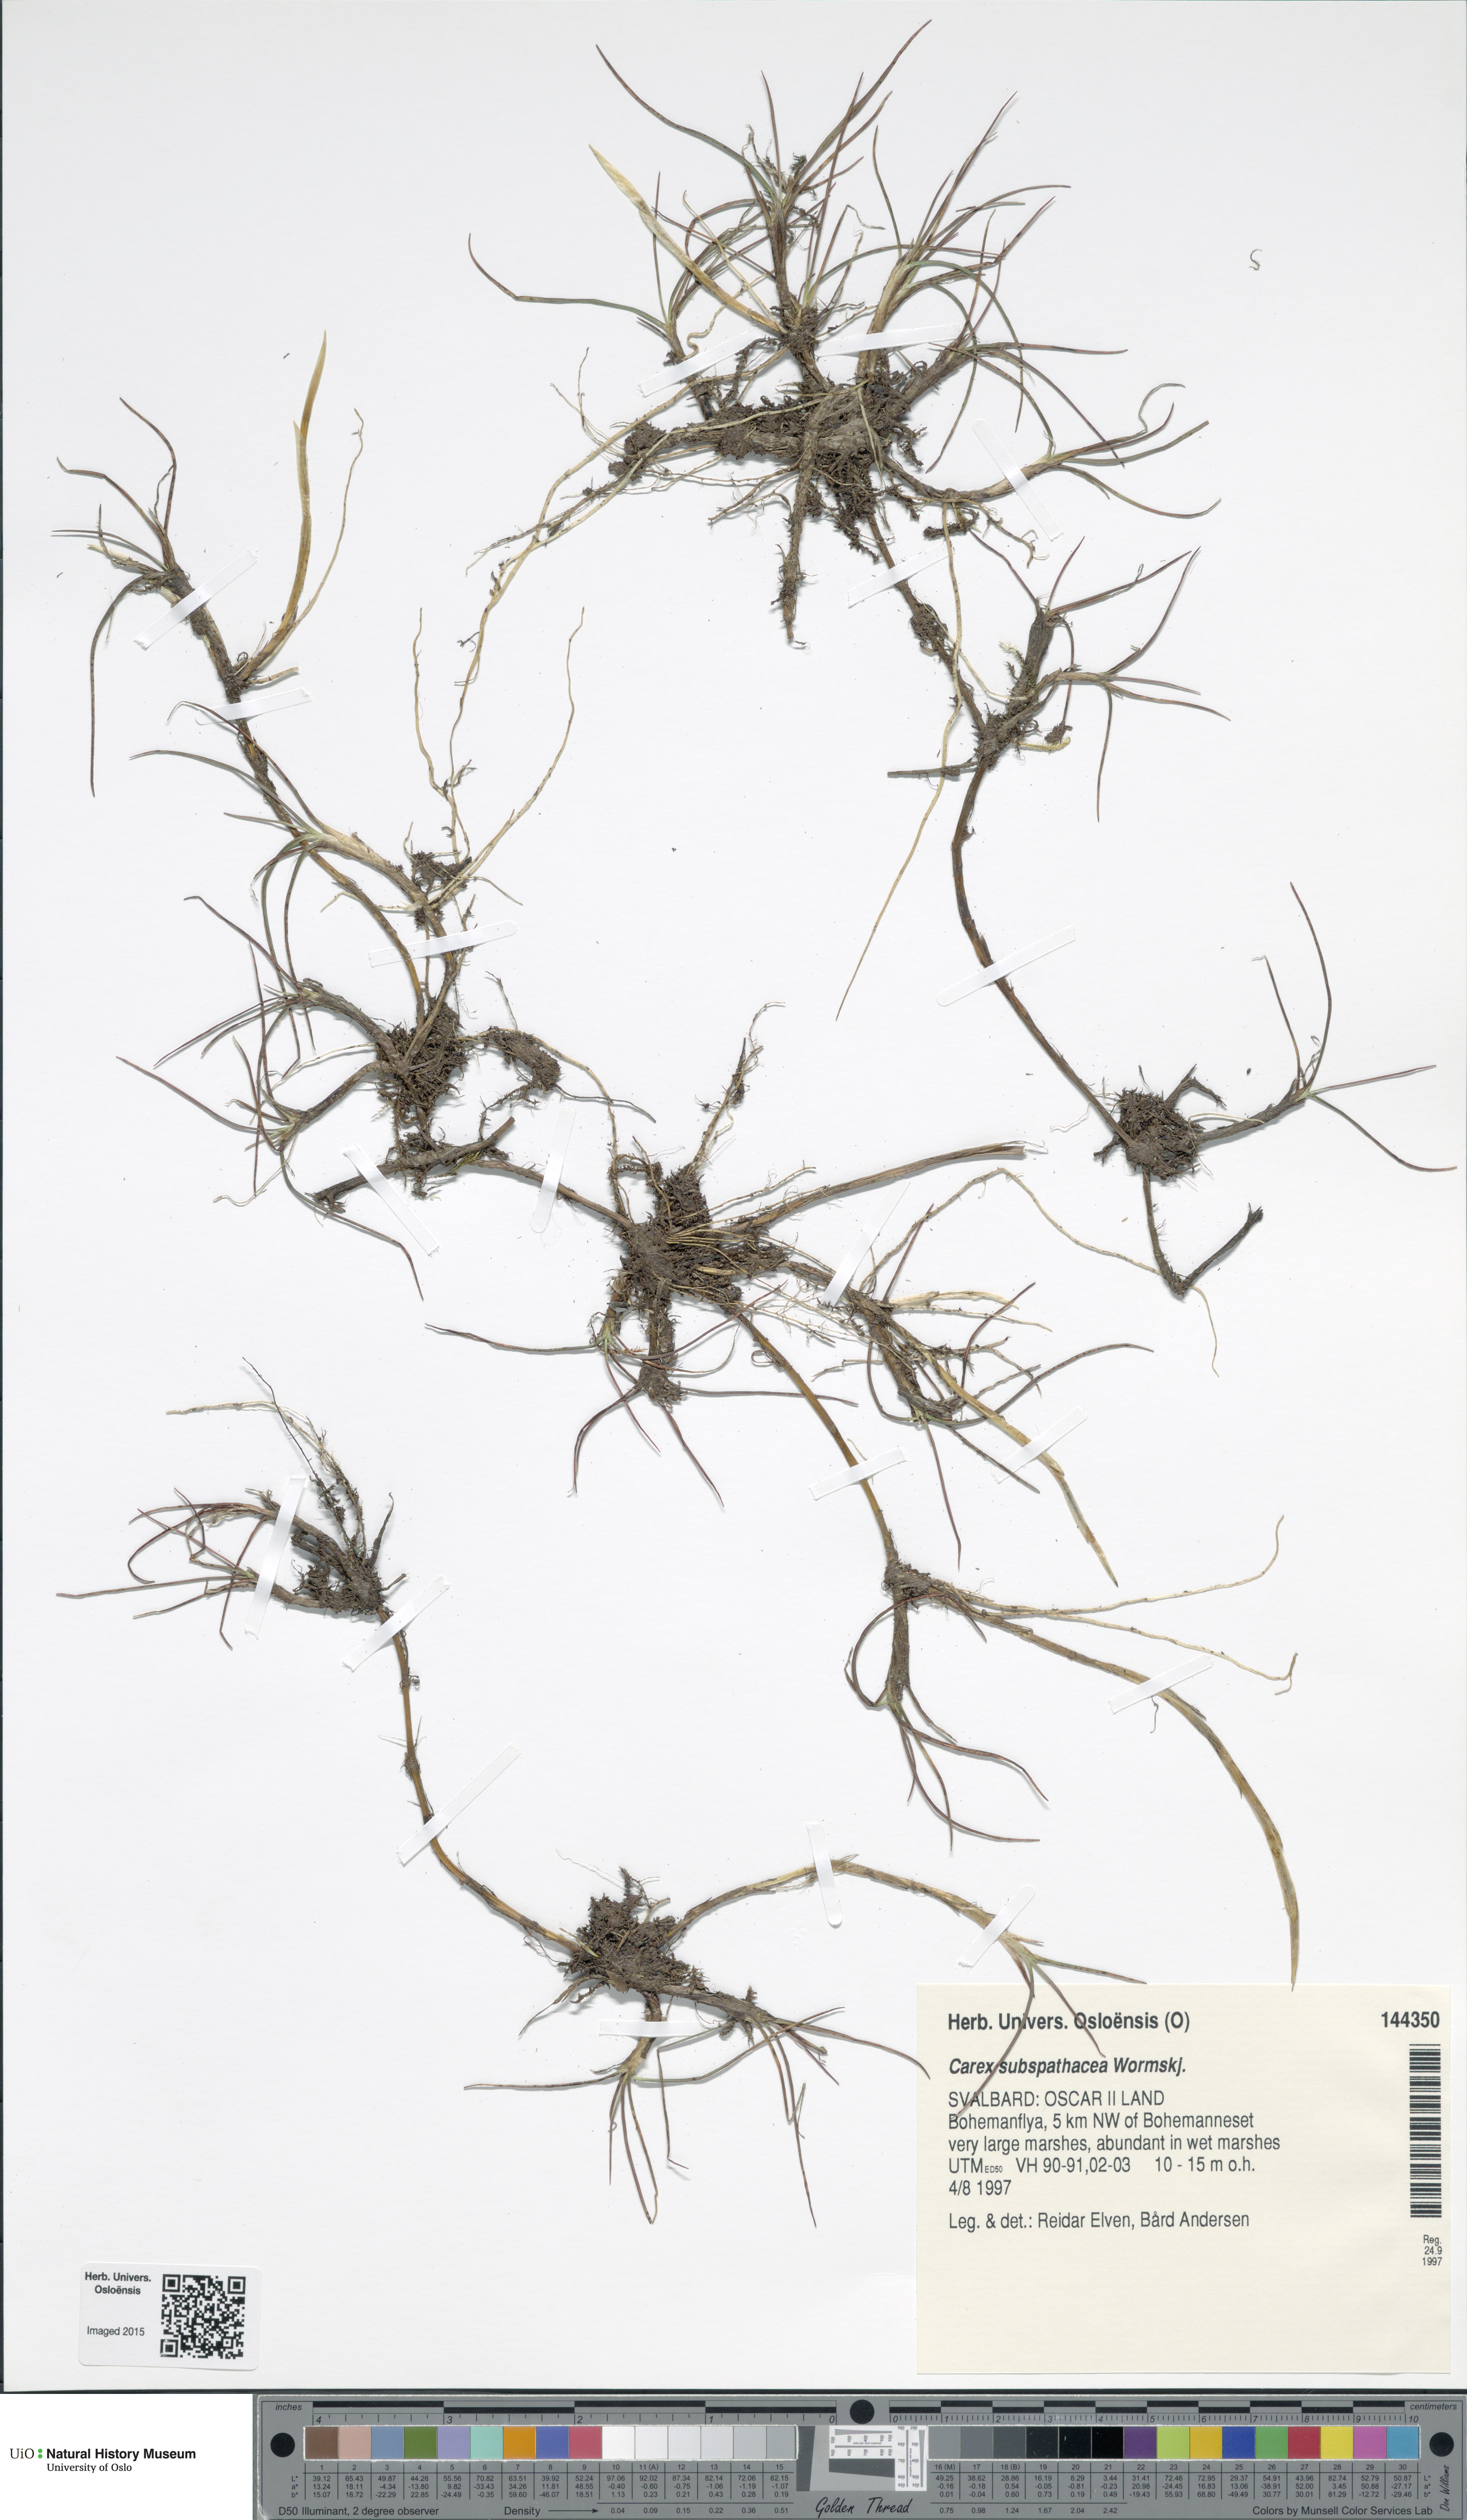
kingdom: Plantae
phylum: Tracheophyta
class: Liliopsida
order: Poales
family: Cyperaceae
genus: Carex
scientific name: Carex subspathacea
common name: Hoppner's sedge
